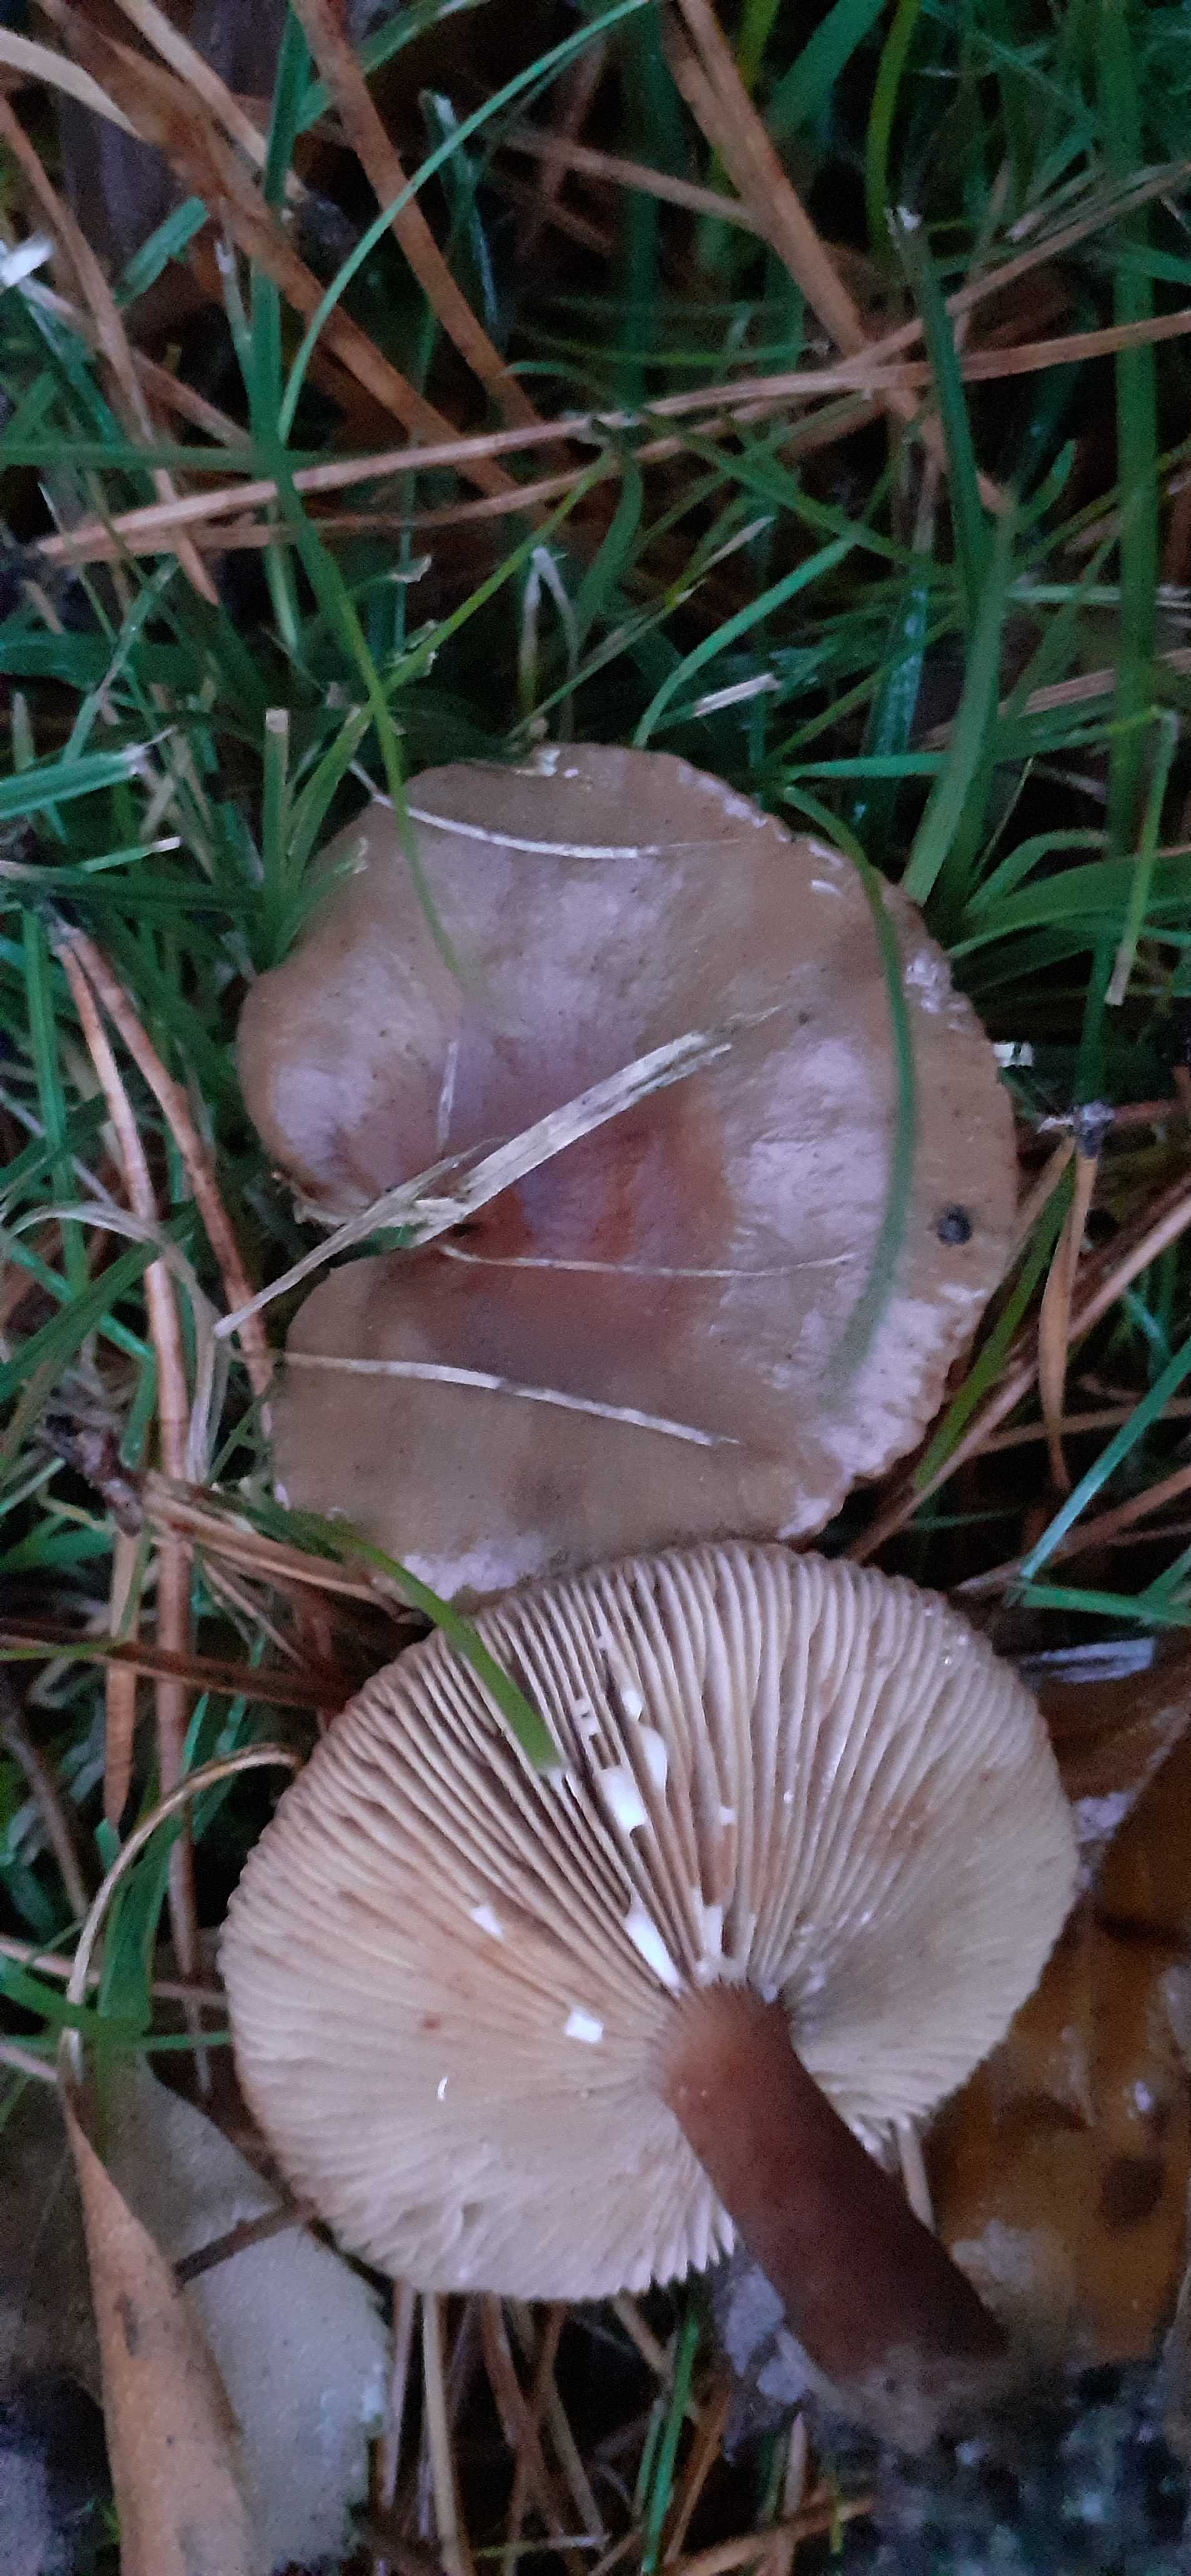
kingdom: Fungi
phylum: Basidiomycota
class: Agaricomycetes
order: Russulales
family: Russulaceae
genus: Lactarius
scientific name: Lactarius hepaticus
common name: leverbrun mælkehat
